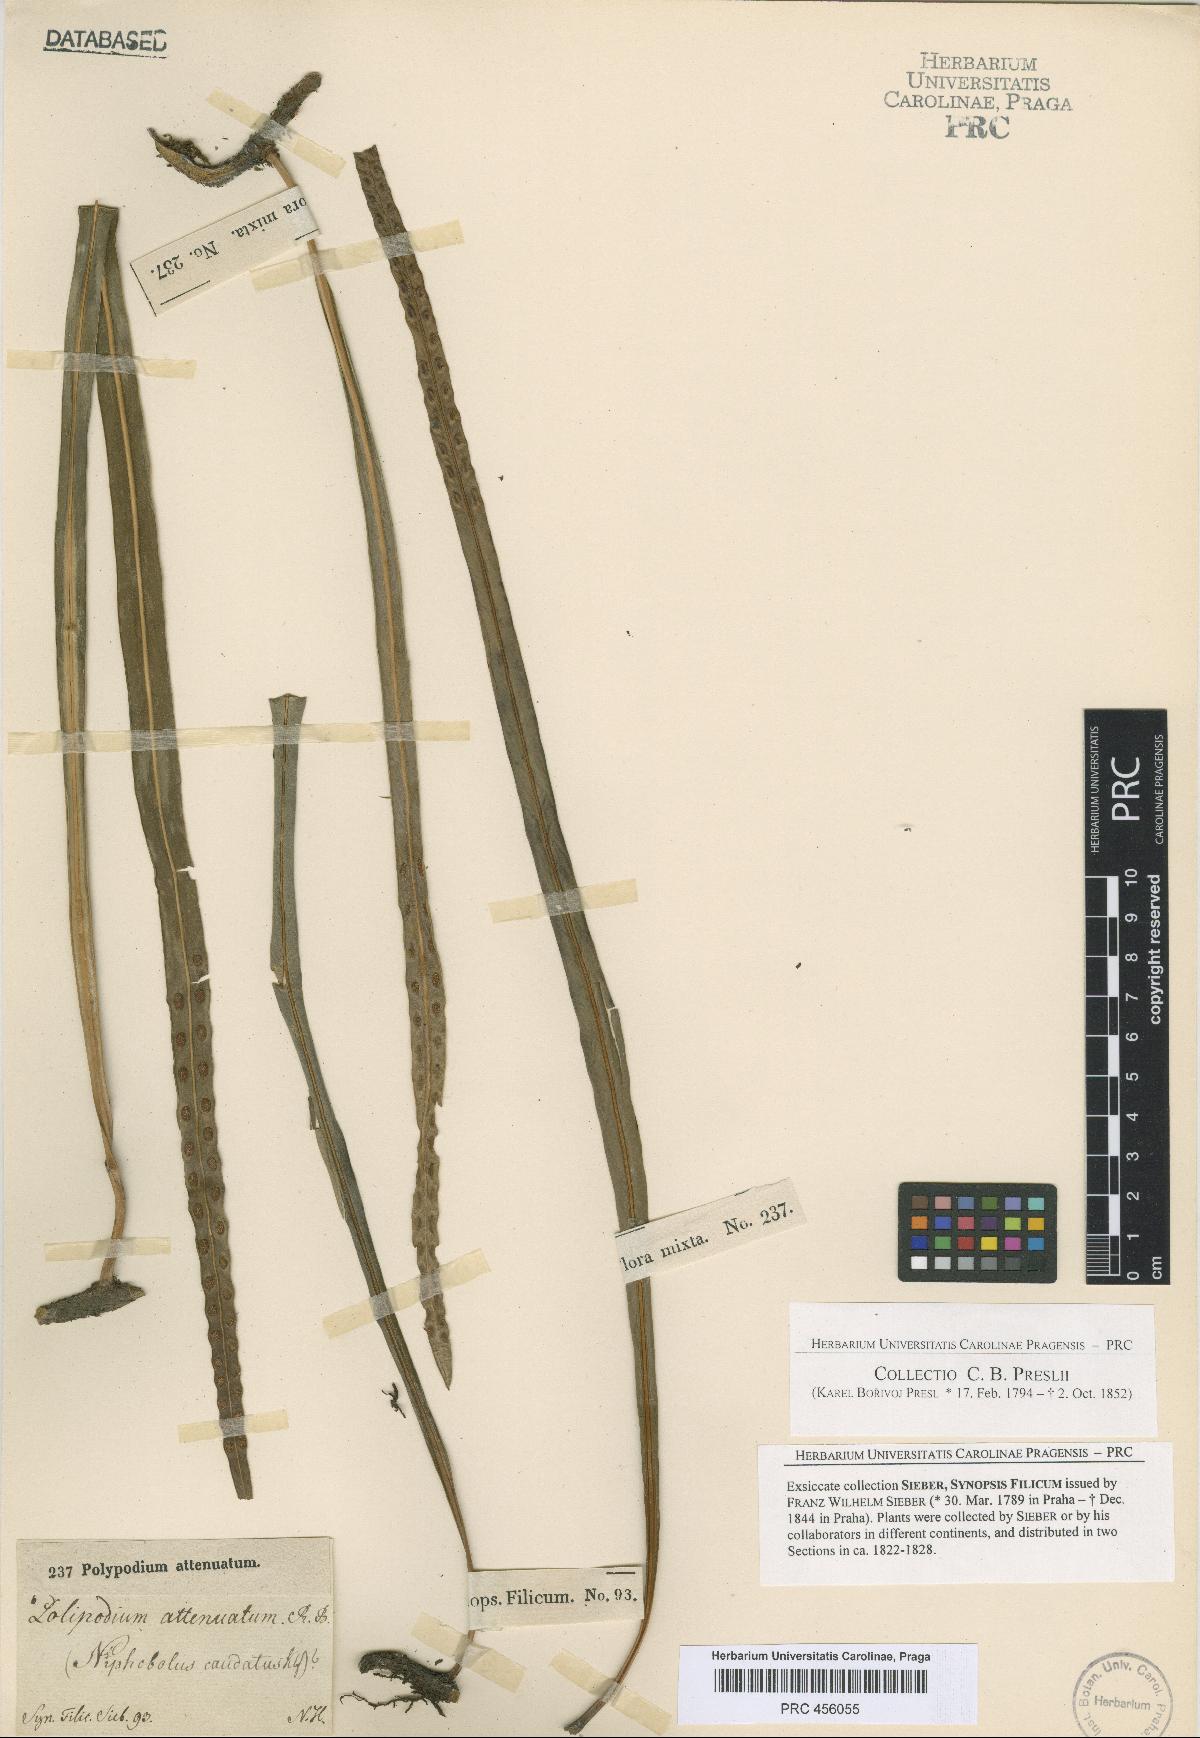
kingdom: Plantae
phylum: Tracheophyta
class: Polypodiopsida
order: Polypodiales
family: Polypodiaceae
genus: Serpocaulon
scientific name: Serpocaulon attenuatum
